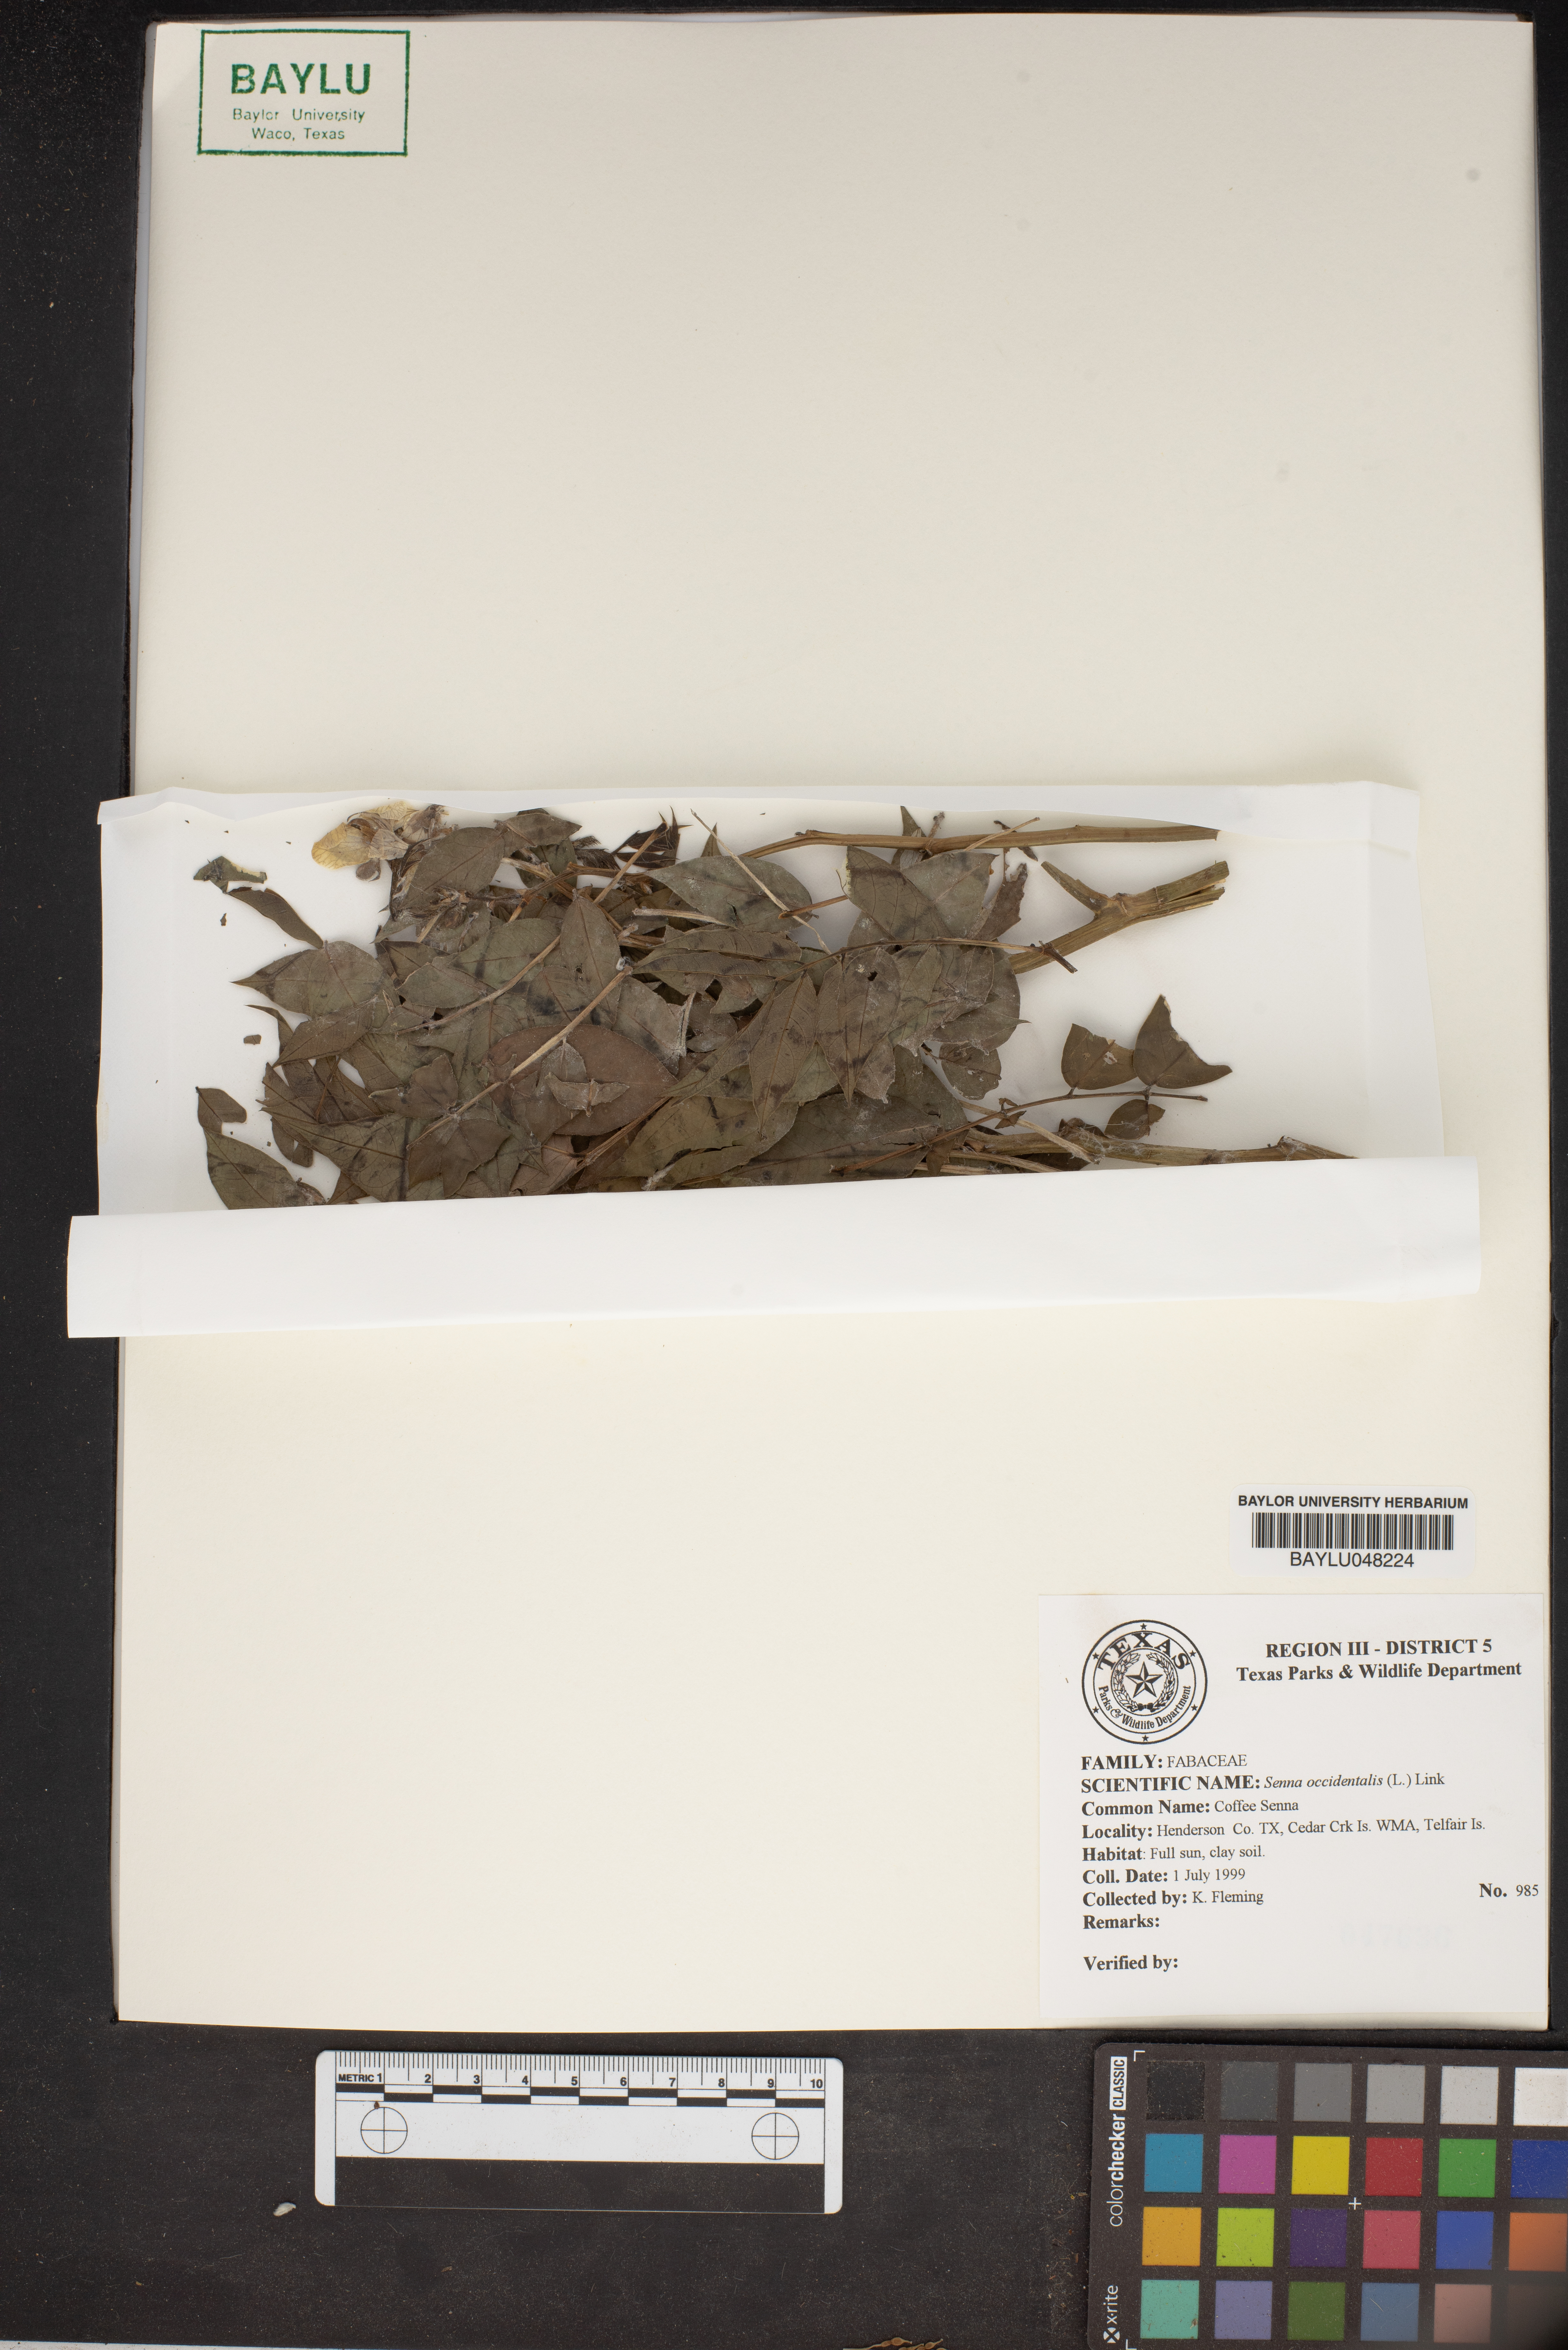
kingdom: Plantae
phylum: Tracheophyta
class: Magnoliopsida
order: Fabales
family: Fabaceae
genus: Senna
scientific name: Senna occidentalis
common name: Septicweed
